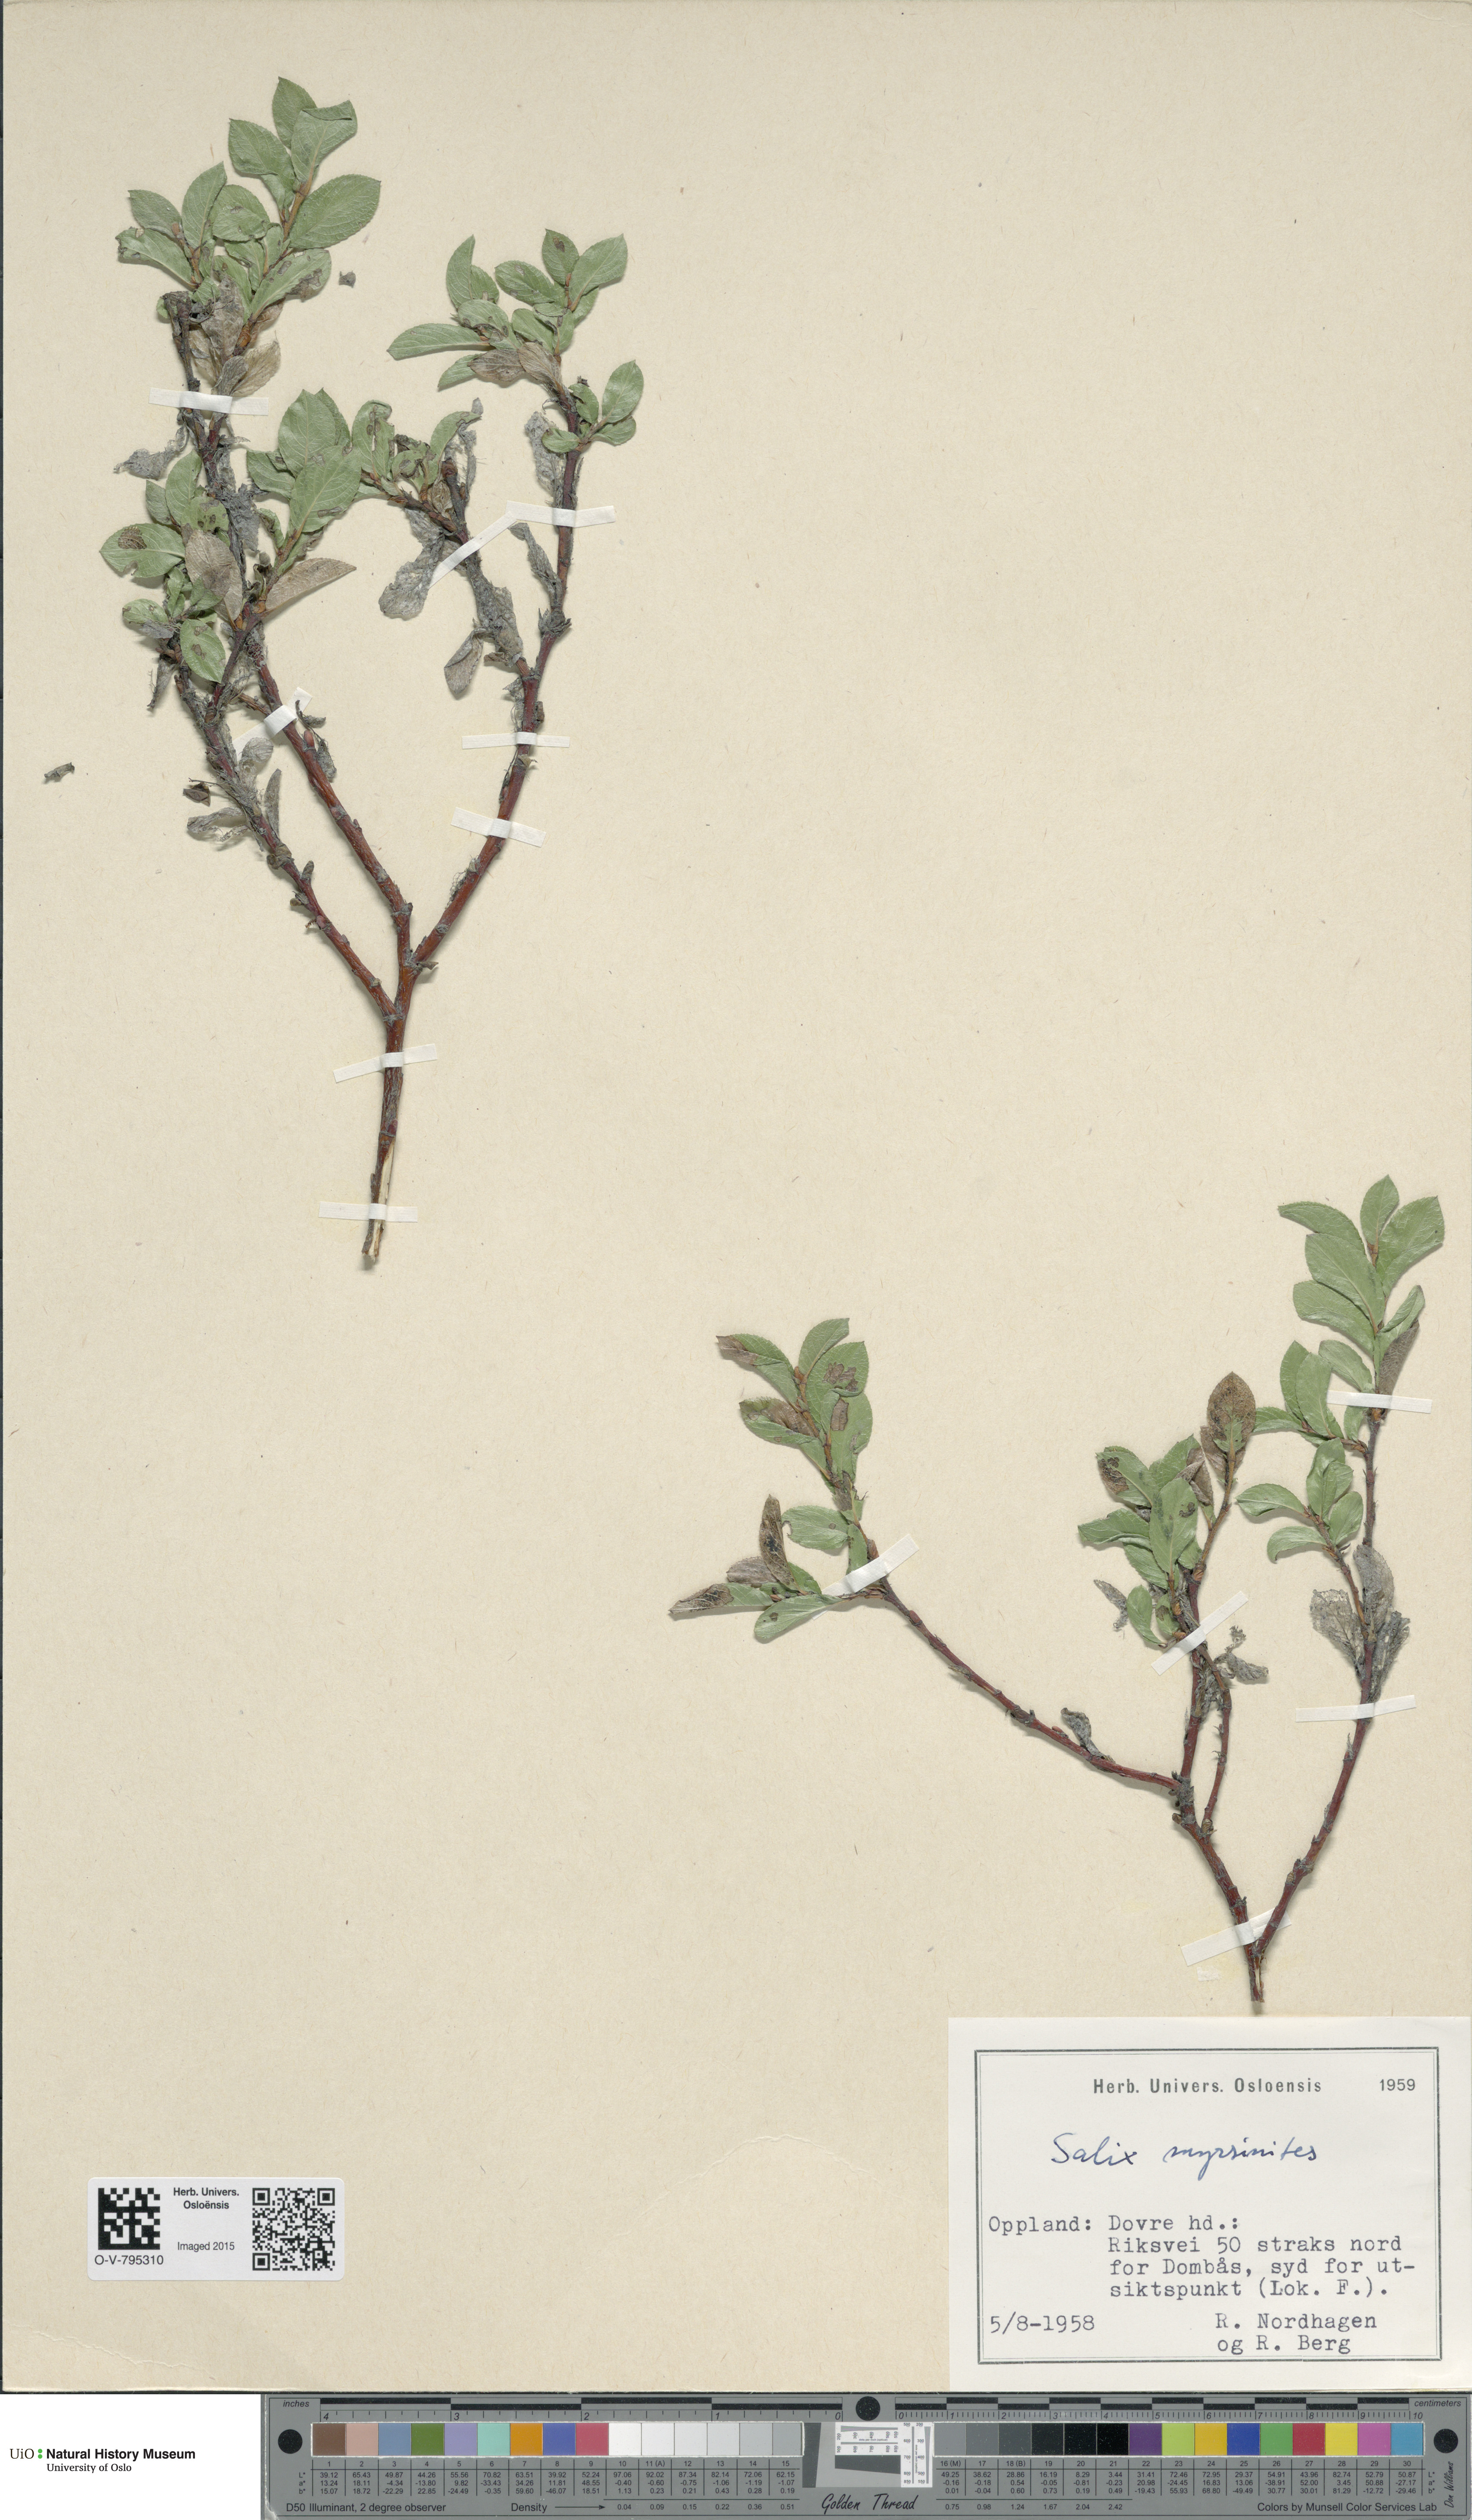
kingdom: Plantae
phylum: Tracheophyta
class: Magnoliopsida
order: Malpighiales
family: Salicaceae
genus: Salix
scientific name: Salix myrsinites
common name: Myrtle willow
